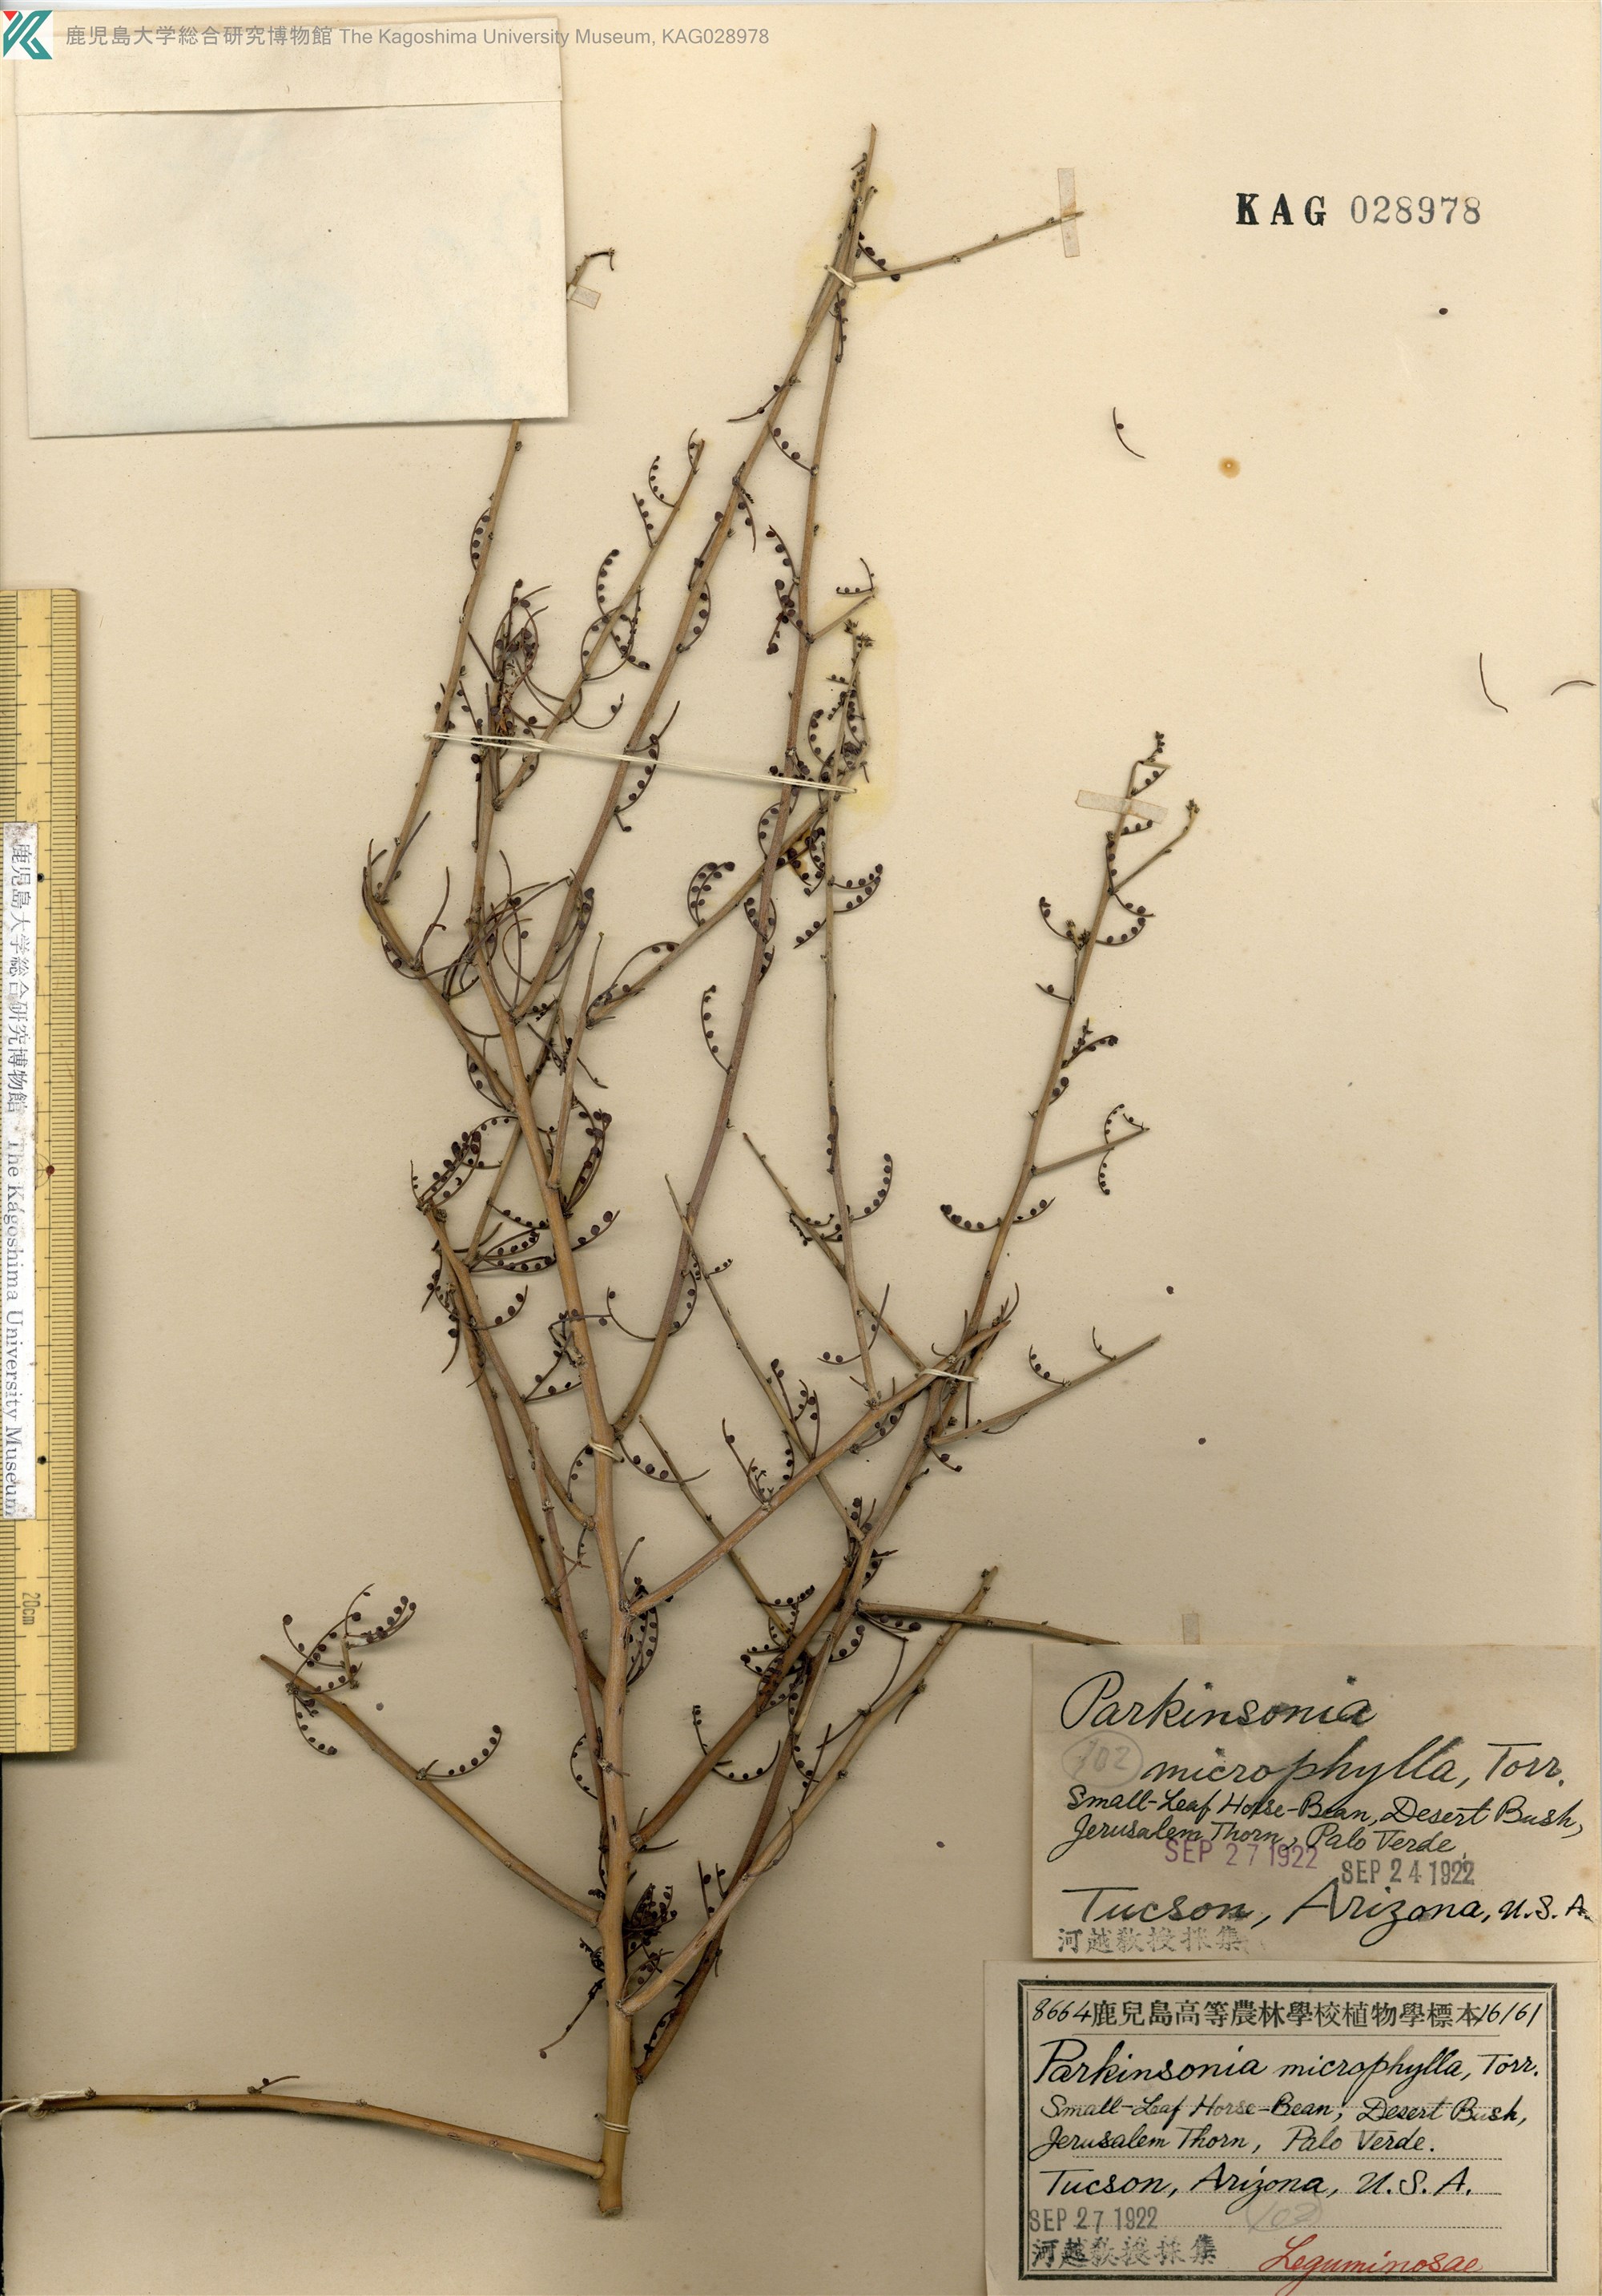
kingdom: Plantae
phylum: Tracheophyta
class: Magnoliopsida
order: Fabales
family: Fabaceae
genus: Parkinsonia
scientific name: Parkinsonia aculeata
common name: Jerusalem thorn
